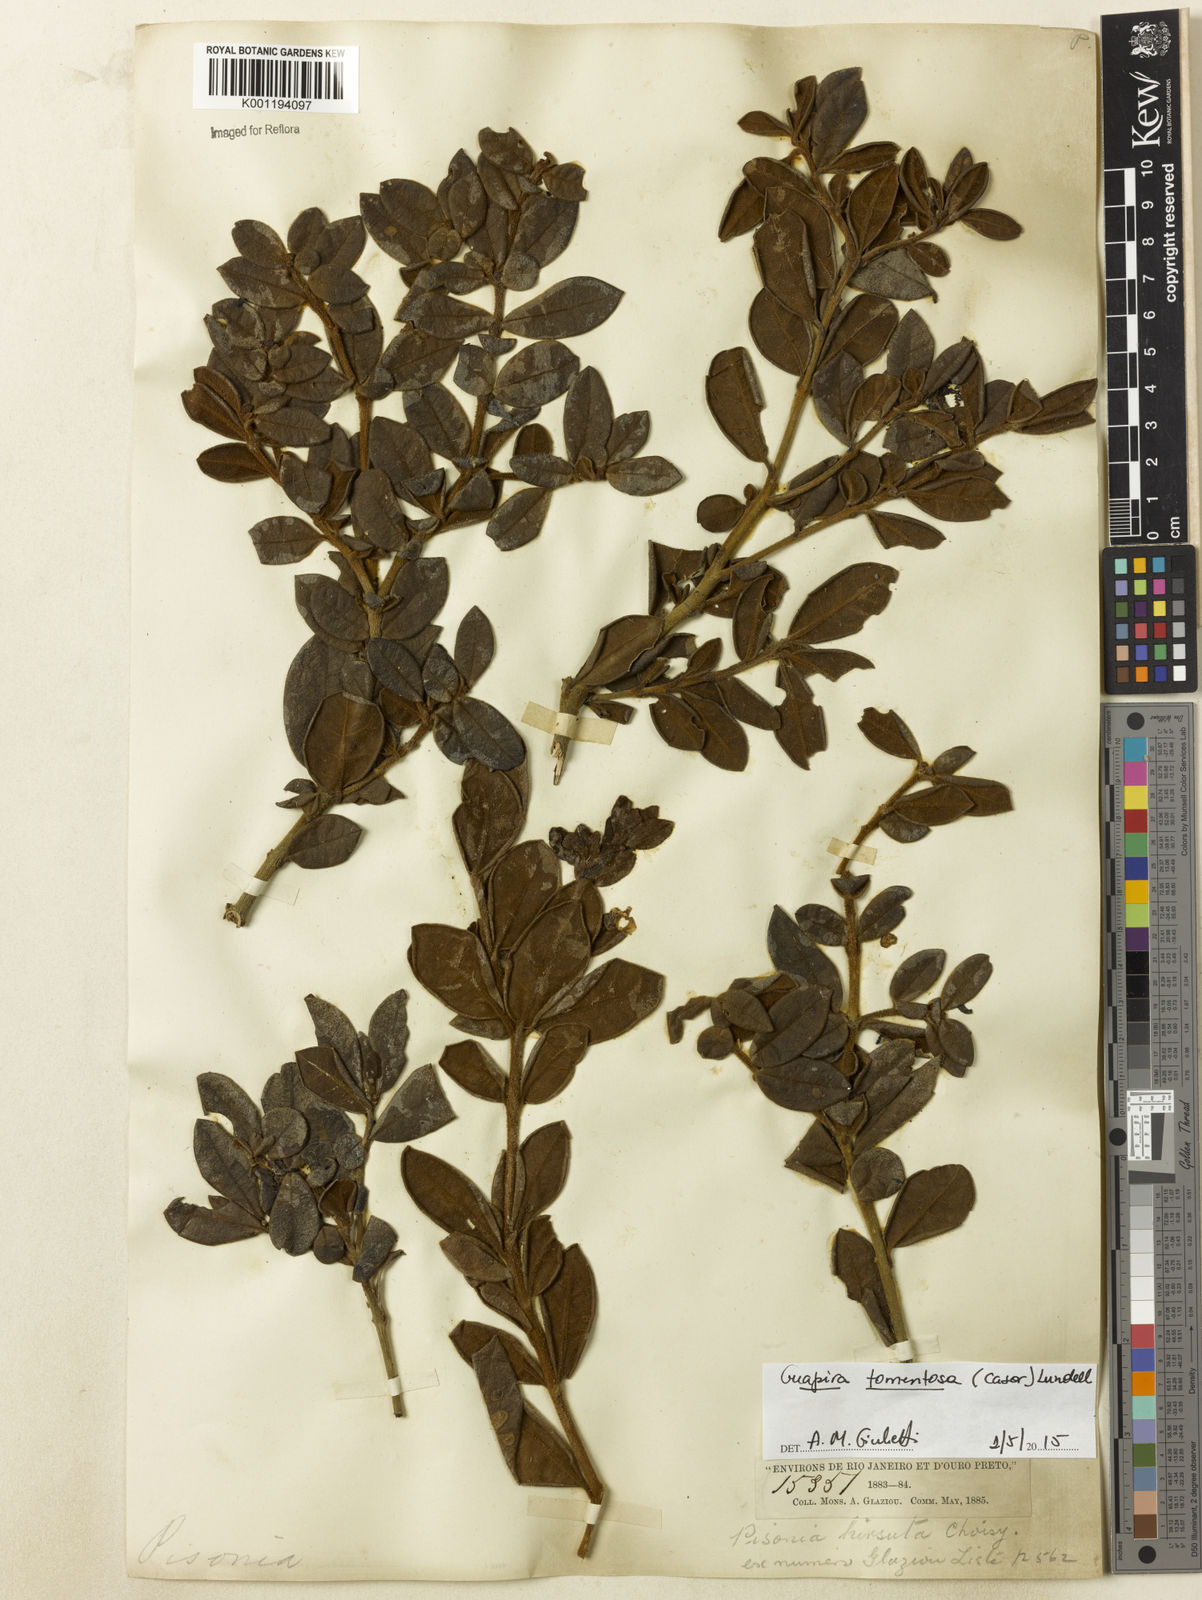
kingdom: Plantae
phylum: Tracheophyta
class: Magnoliopsida
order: Caryophyllales
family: Nyctaginaceae
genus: Guapira
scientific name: Guapira tomentosa
